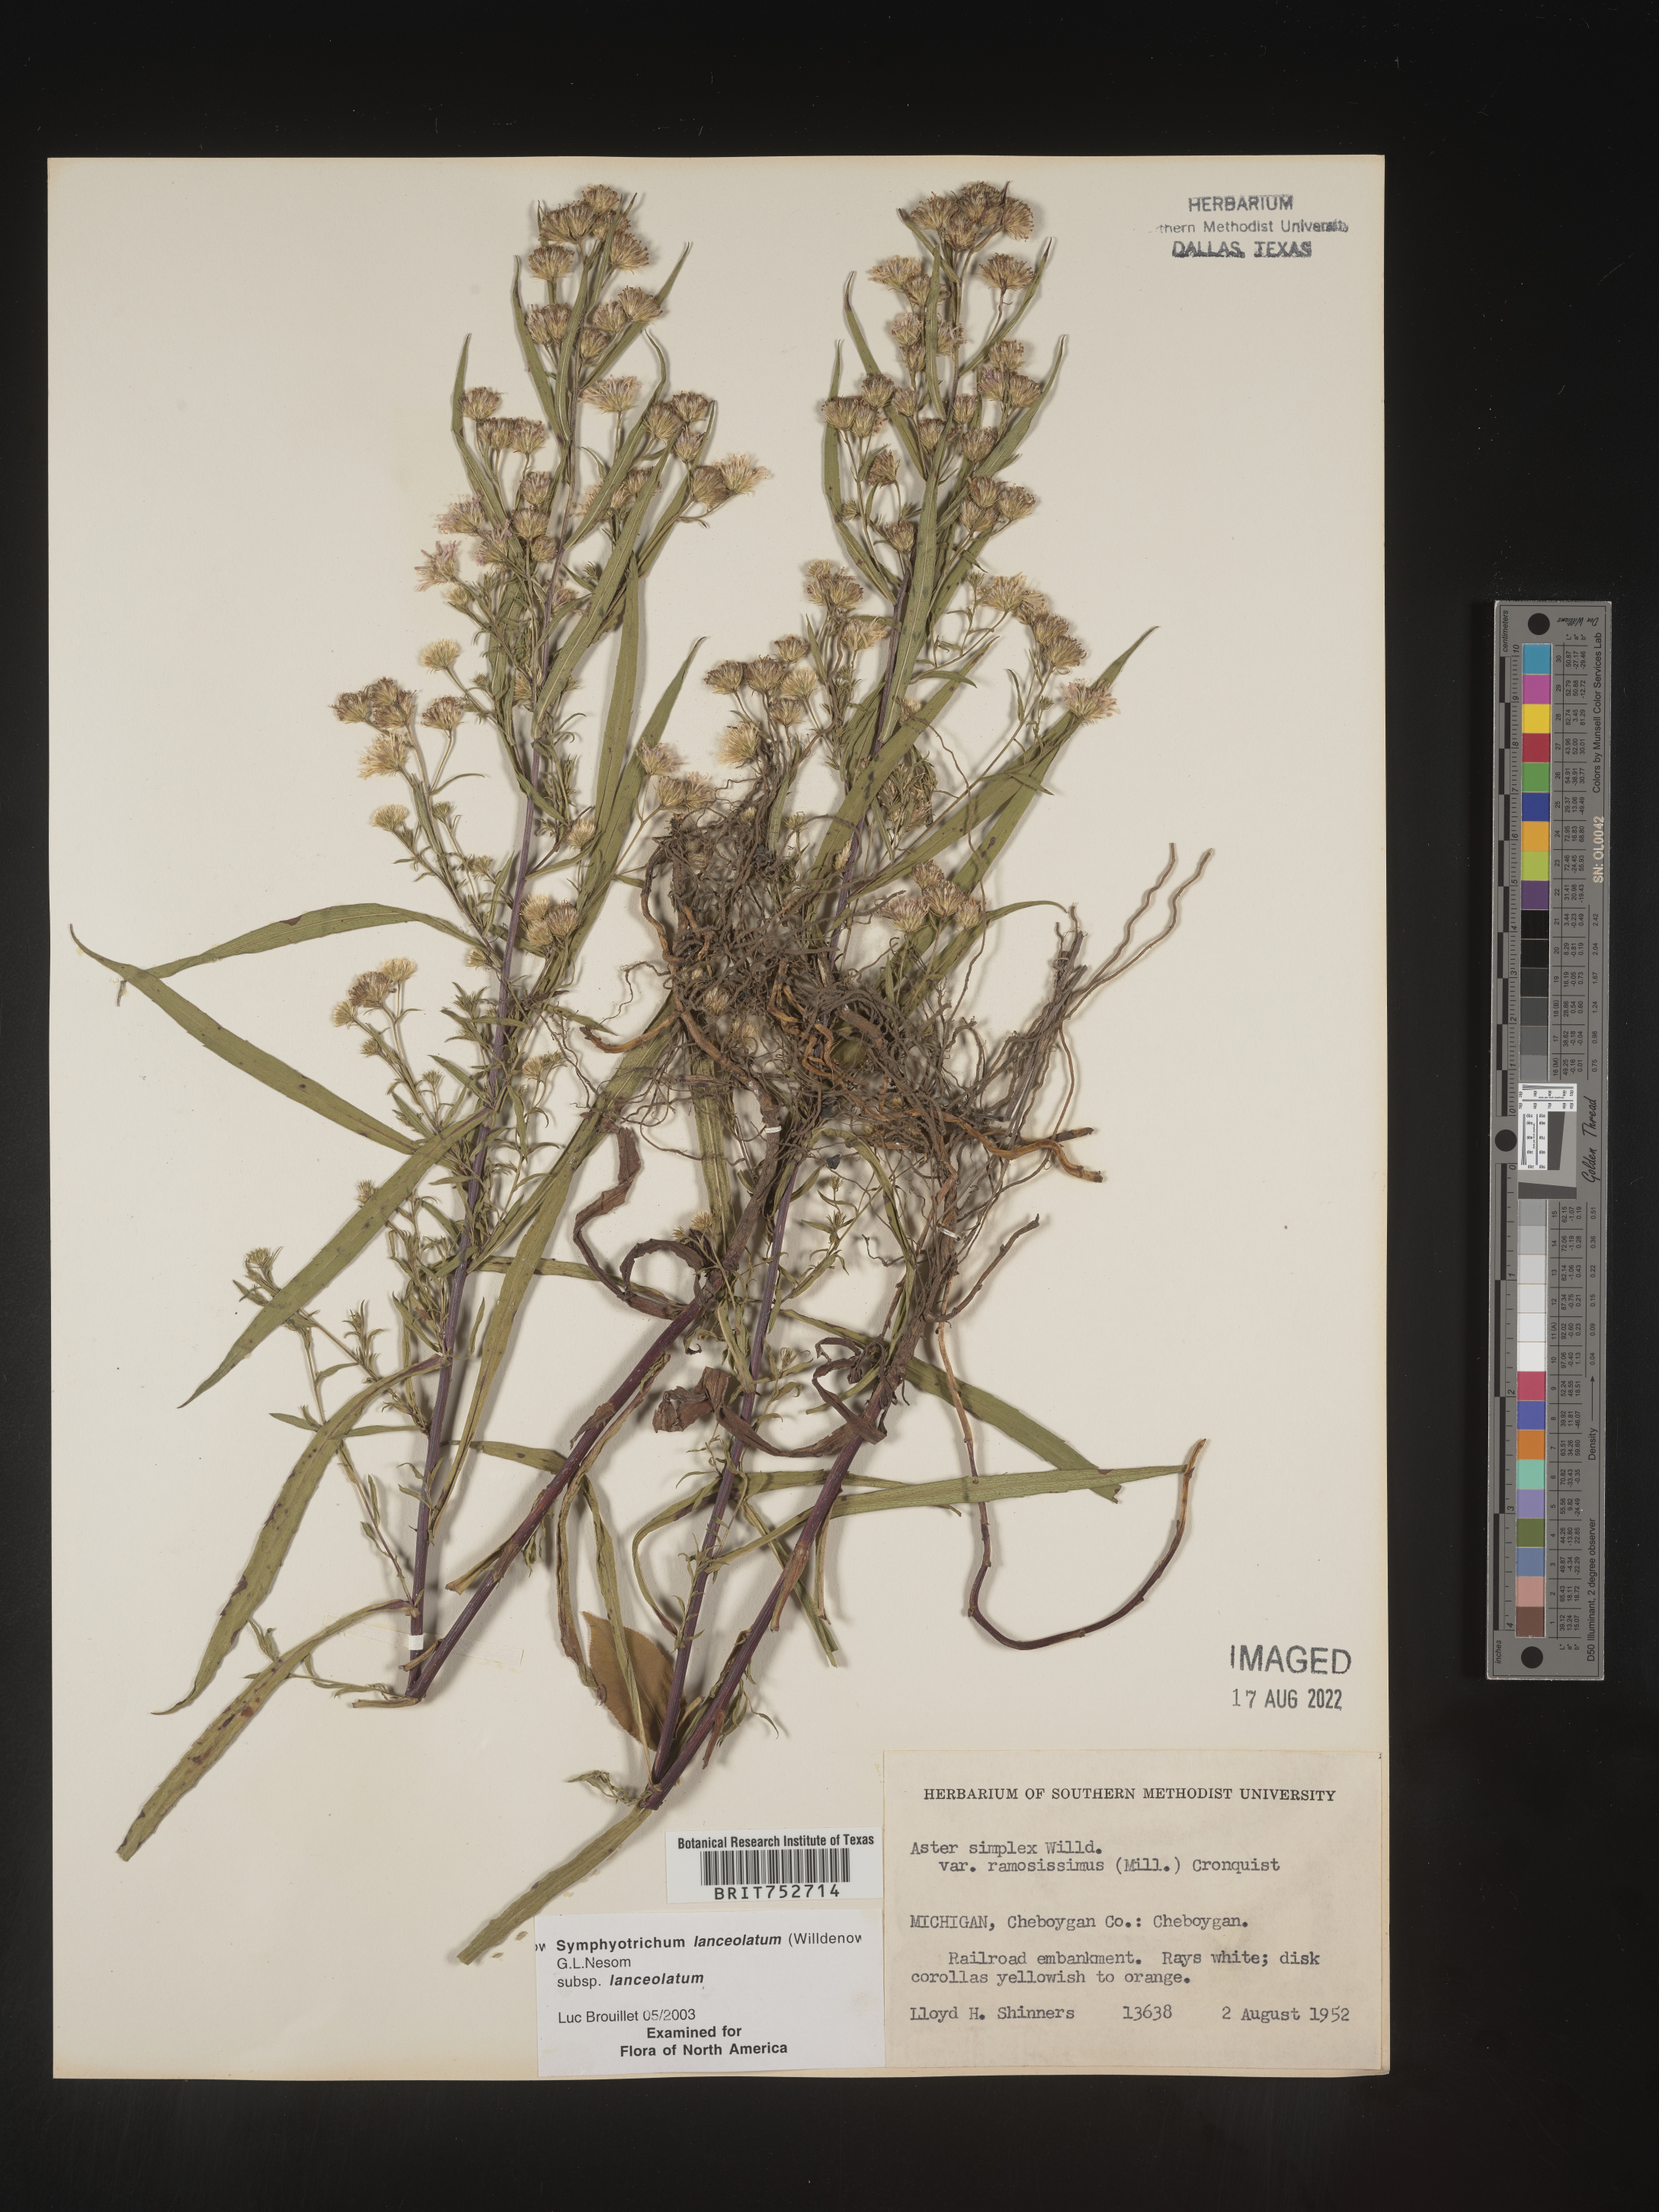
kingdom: Plantae
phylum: Tracheophyta
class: Magnoliopsida
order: Asterales
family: Asteraceae
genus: Symphyotrichum
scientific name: Symphyotrichum lanceolatum
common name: Panicled aster
